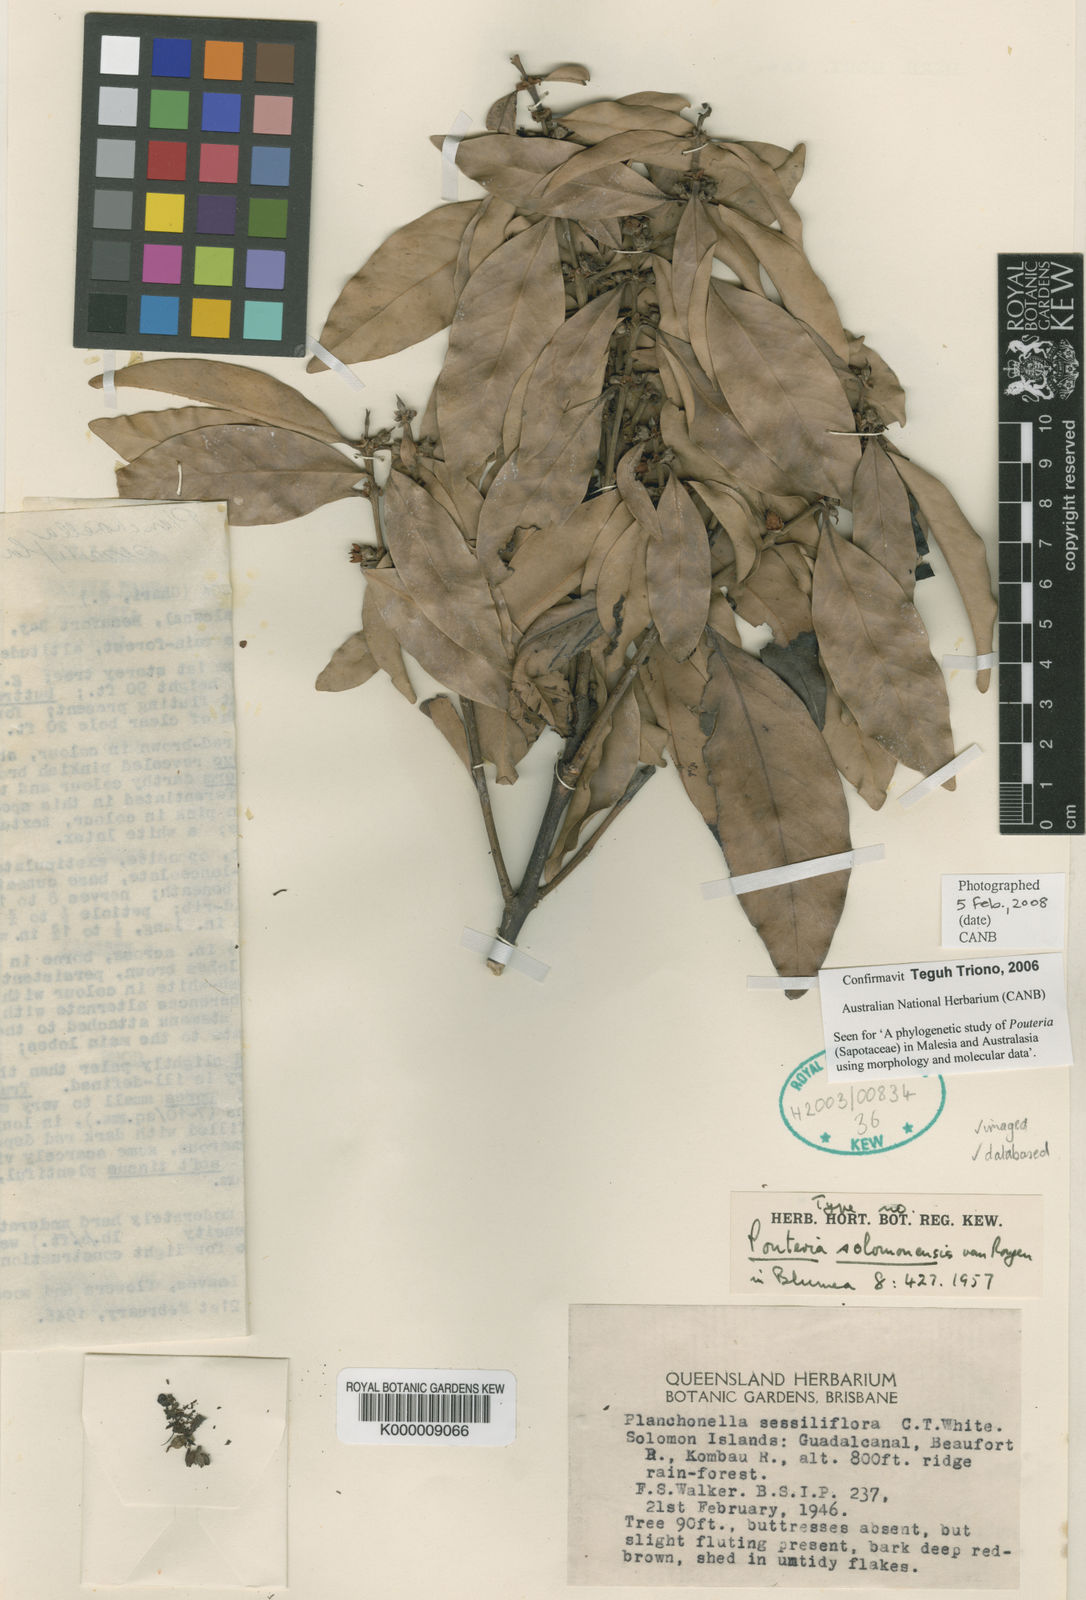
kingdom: Plantae
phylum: Tracheophyta
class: Magnoliopsida
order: Ericales
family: Sapotaceae
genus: Pichonia
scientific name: Pichonia sessiliflora
